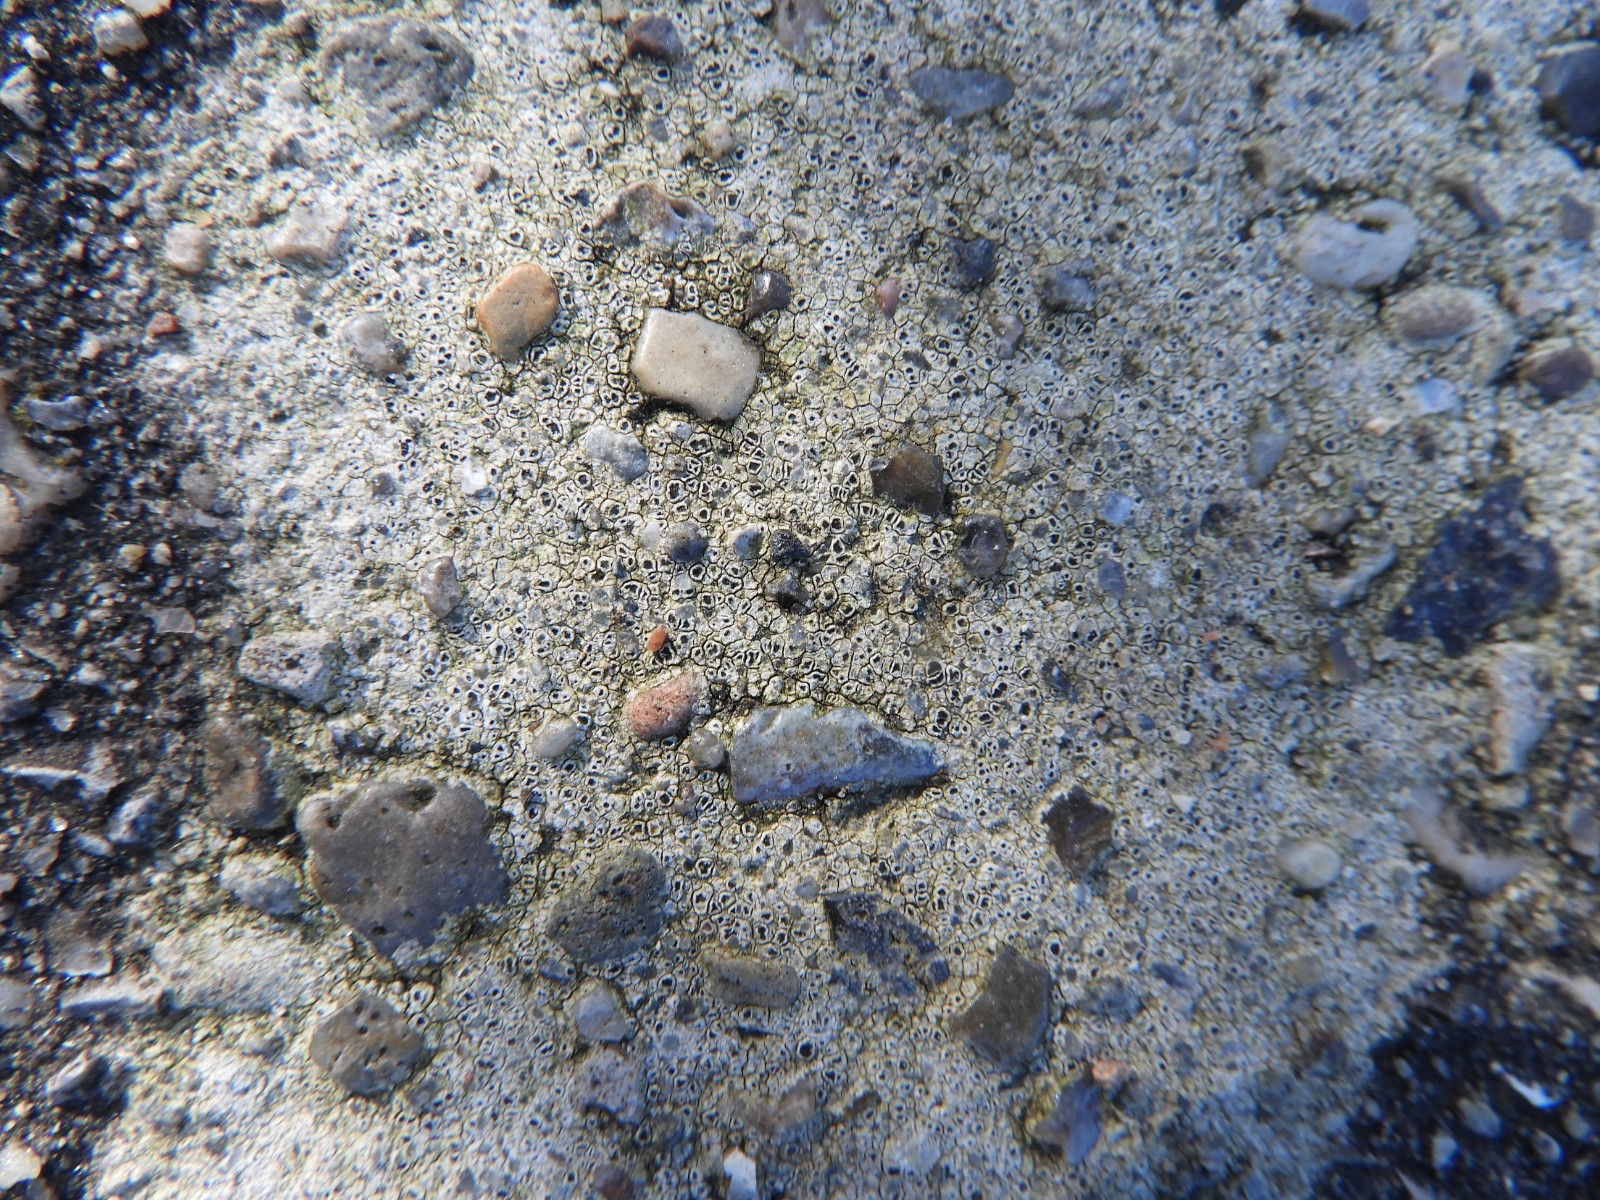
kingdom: Fungi
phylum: Ascomycota
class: Lecanoromycetes
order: Pertusariales
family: Megasporaceae
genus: Circinaria
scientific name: Circinaria contorta
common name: indviklet hulskivelav
